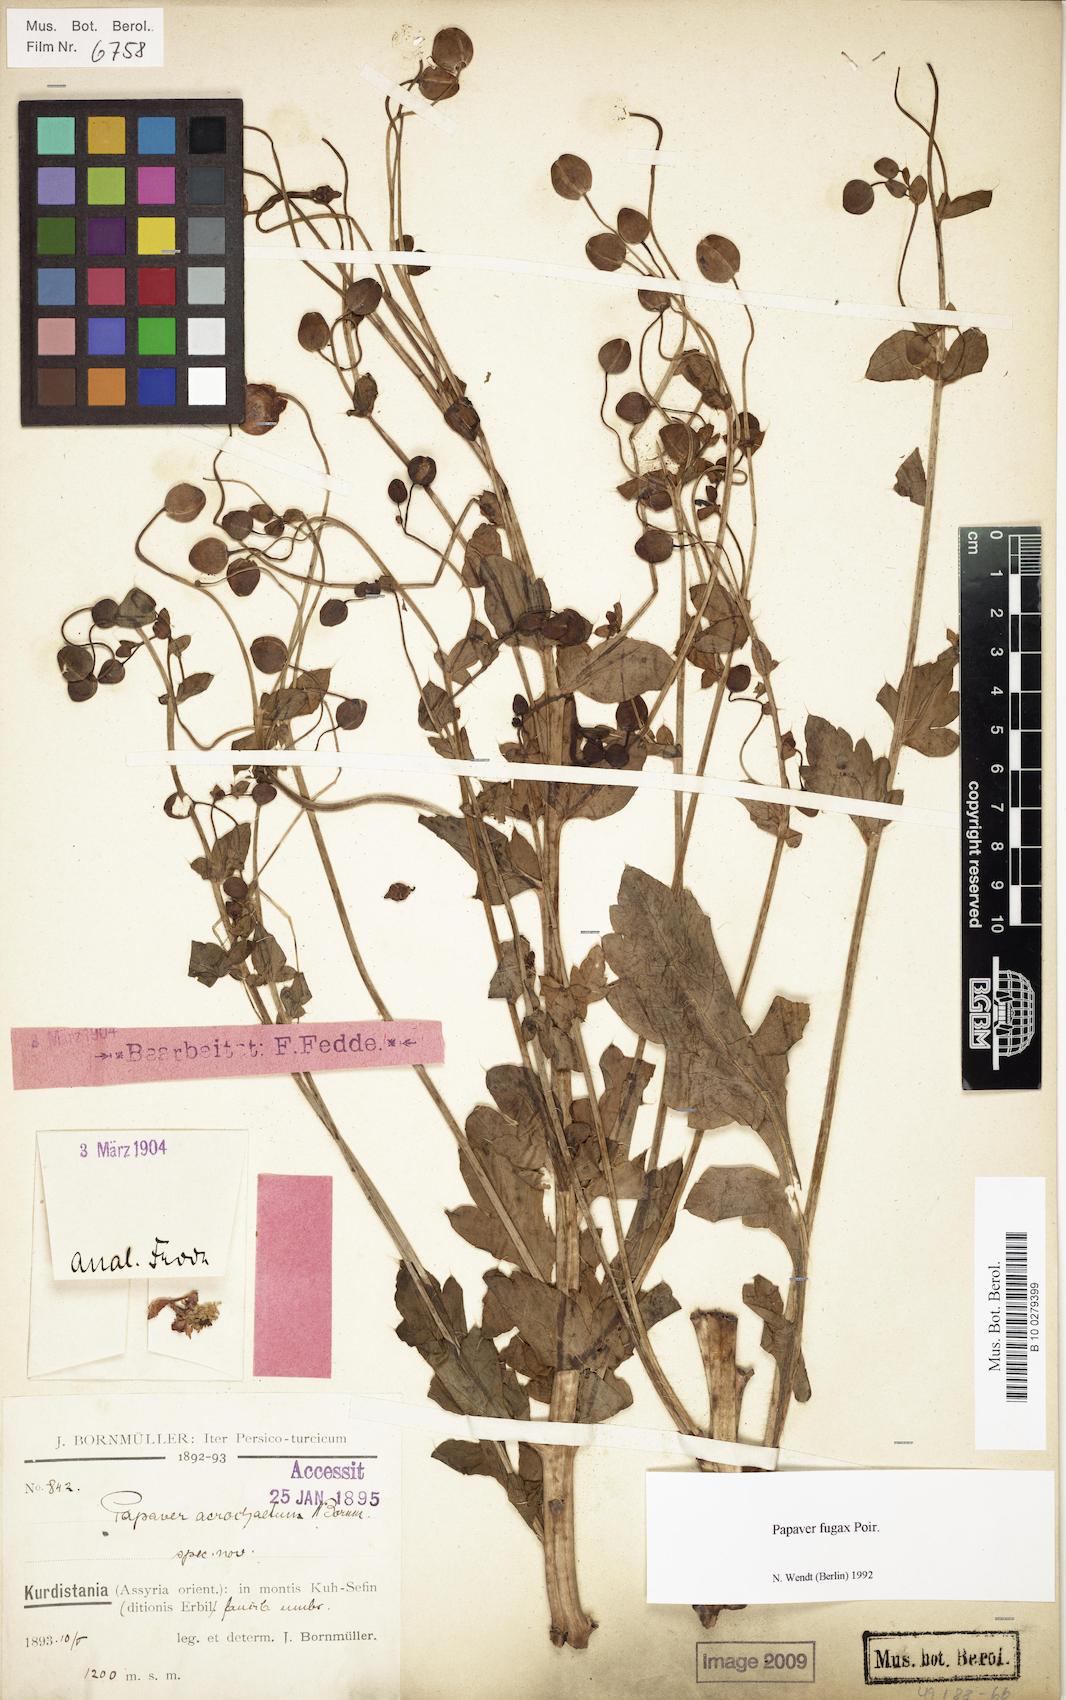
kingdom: Plantae
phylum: Tracheophyta
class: Magnoliopsida
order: Ranunculales
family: Papaveraceae
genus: Papaver
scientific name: Papaver armeniacum
